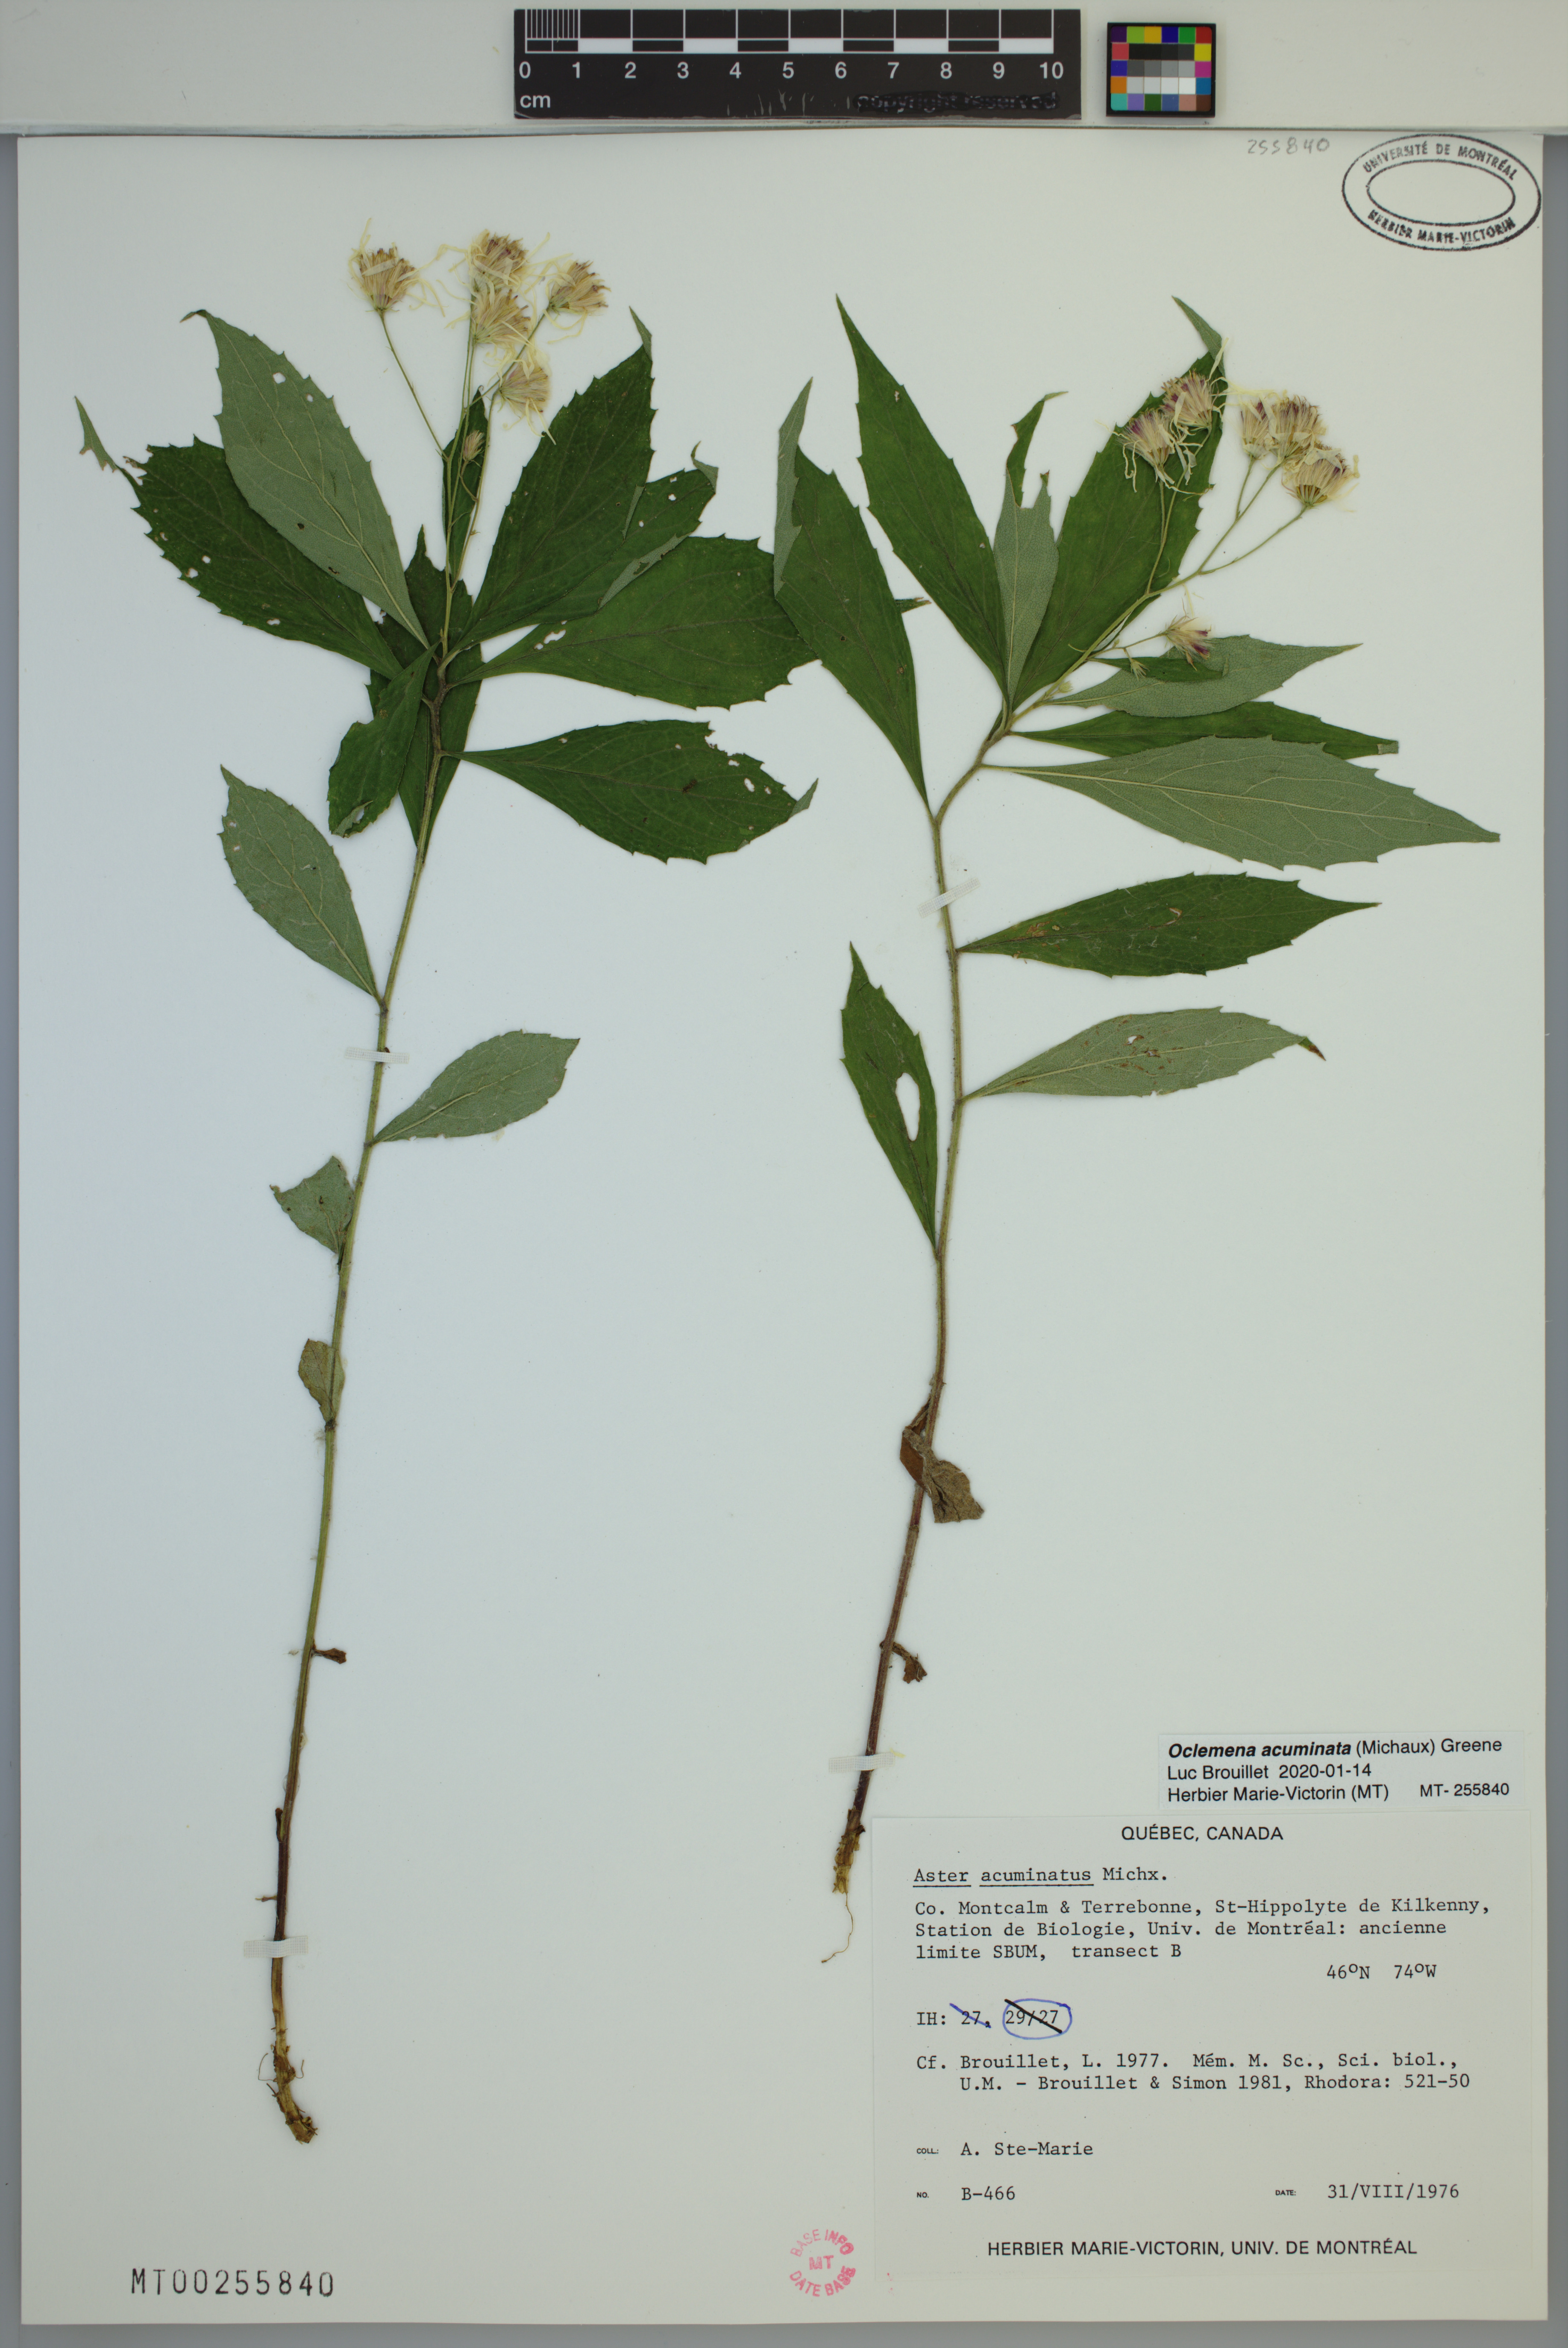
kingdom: Plantae
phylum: Tracheophyta
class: Magnoliopsida
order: Asterales
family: Asteraceae
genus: Oclemena
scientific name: Oclemena acuminata
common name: Mountain aster
